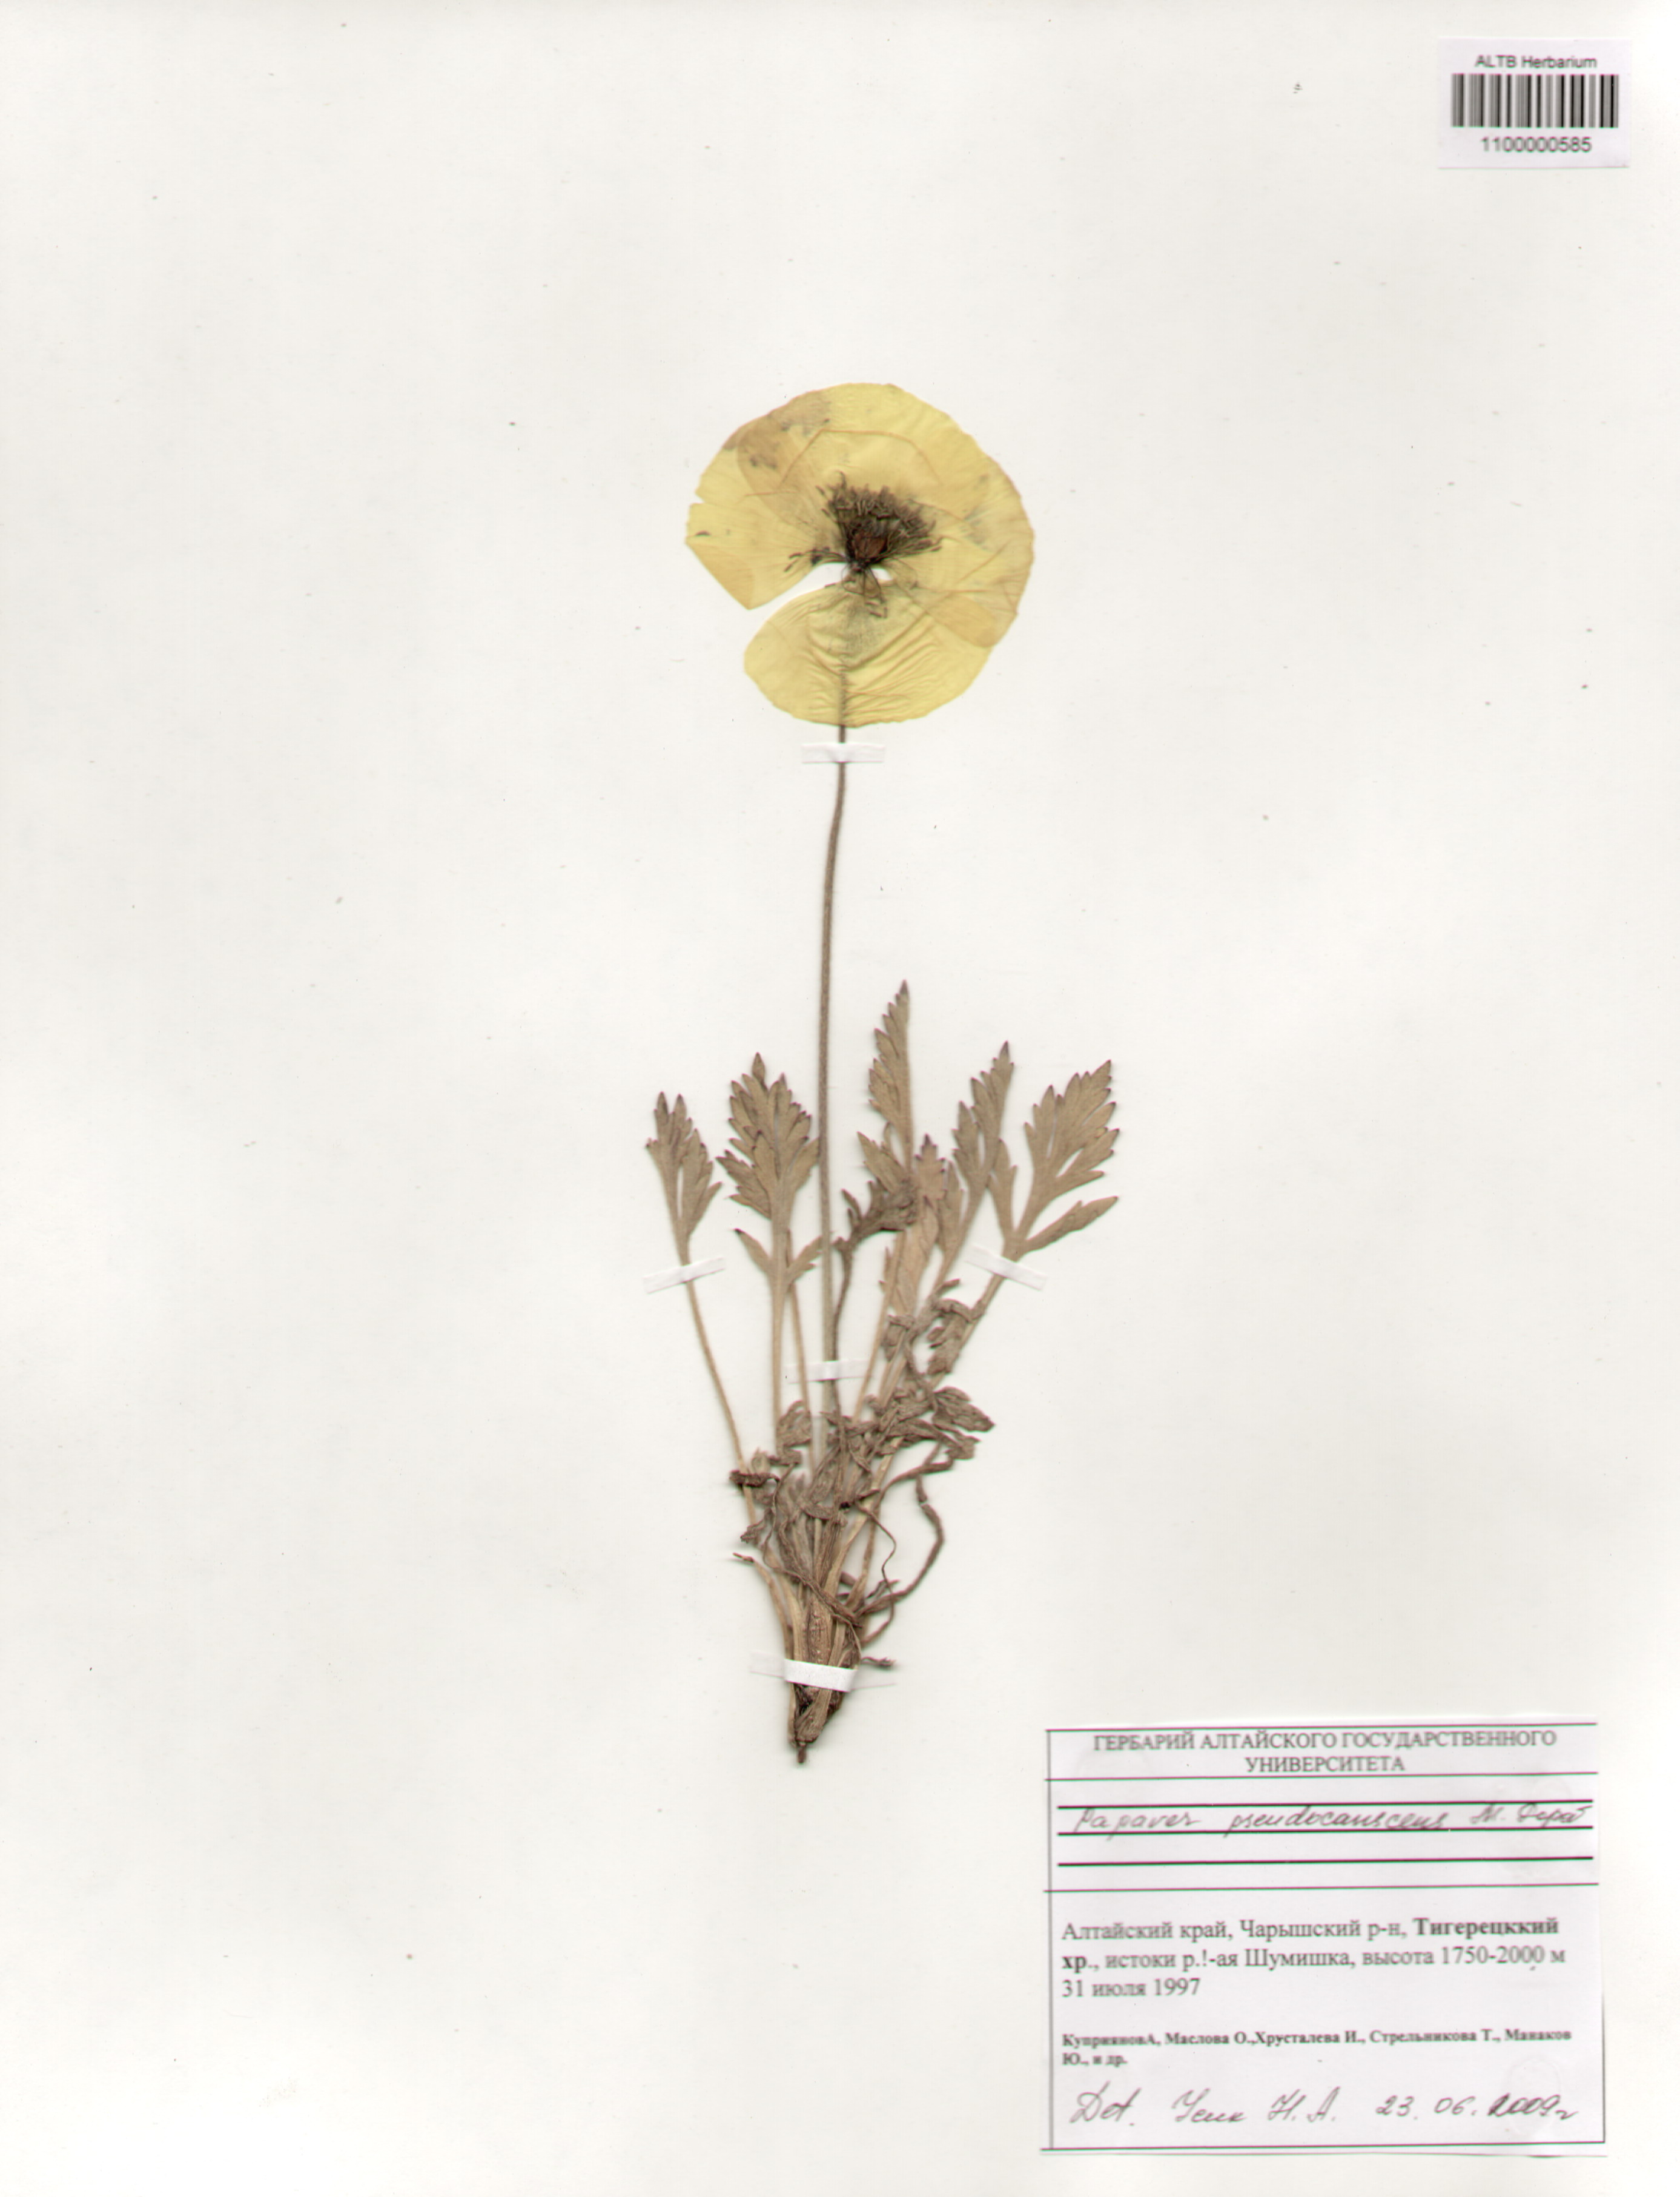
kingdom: Plantae
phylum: Tracheophyta
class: Magnoliopsida
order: Ranunculales
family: Papaveraceae
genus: Papaver
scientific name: Papaver canescens
